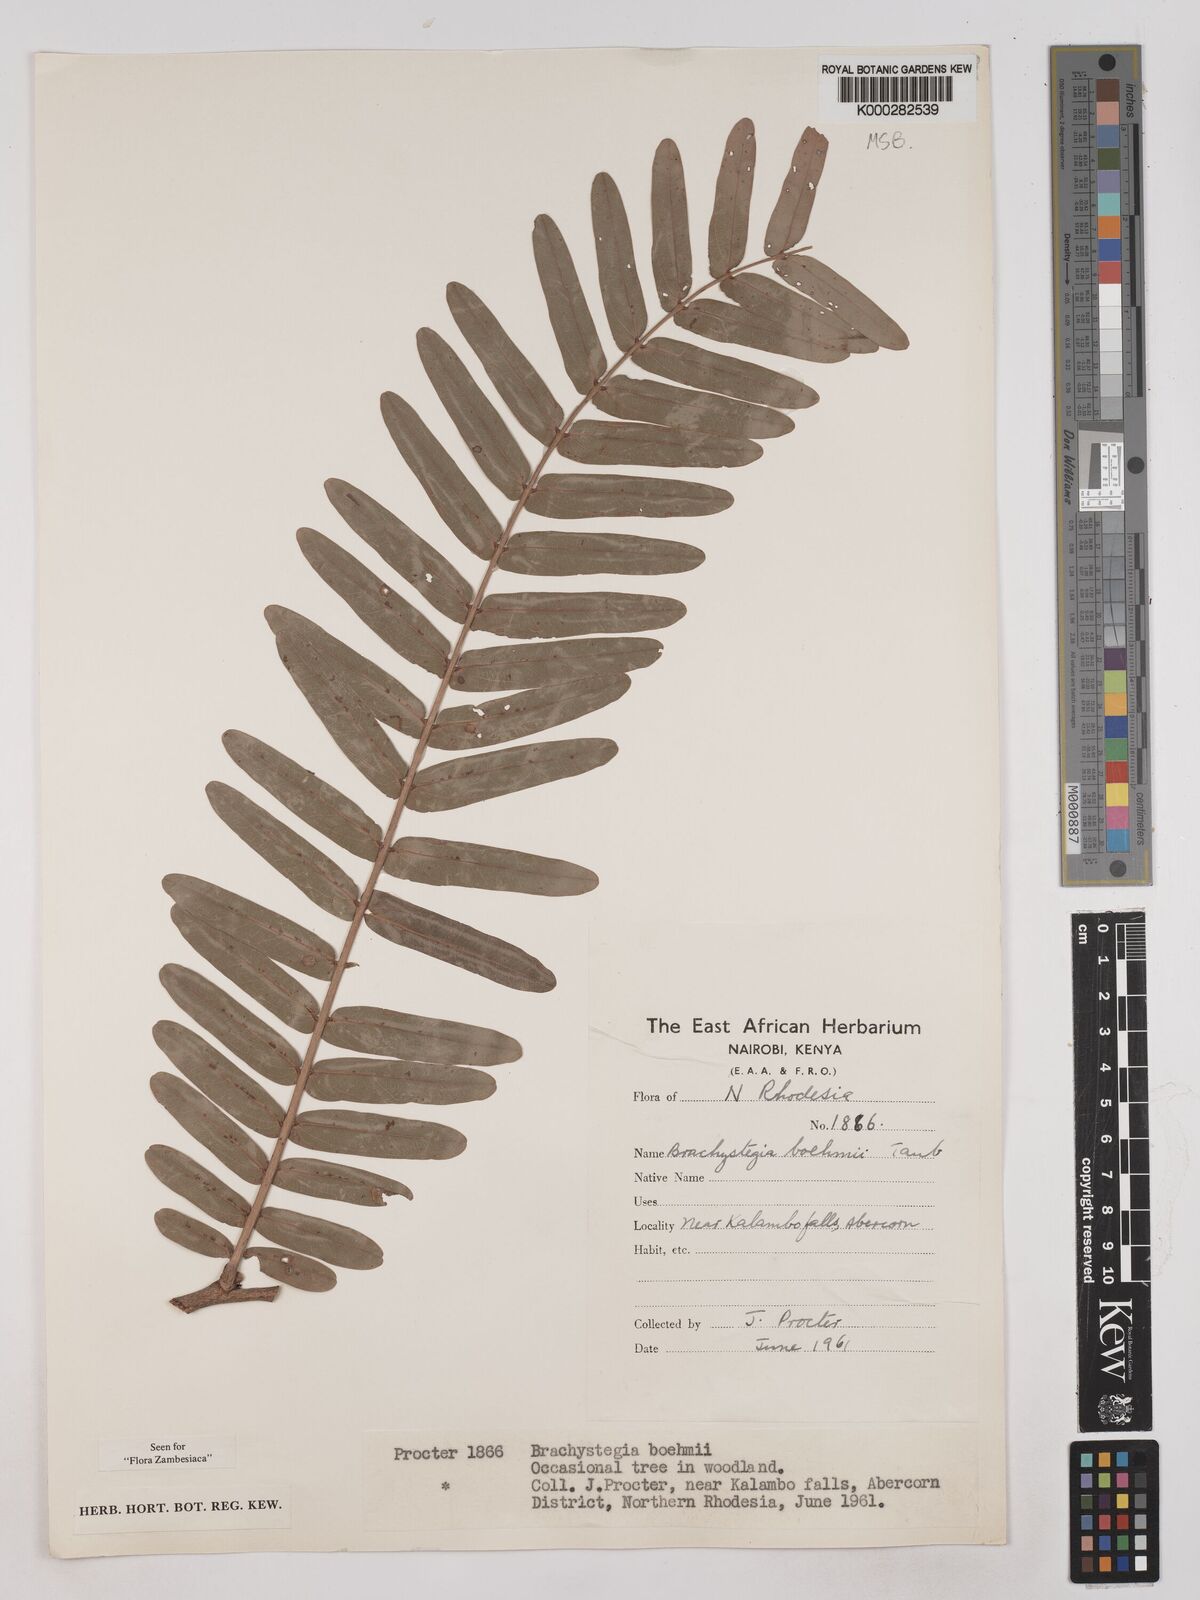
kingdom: Plantae
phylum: Tracheophyta
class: Magnoliopsida
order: Fabales
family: Fabaceae
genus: Brachystegia
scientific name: Brachystegia boehmii
